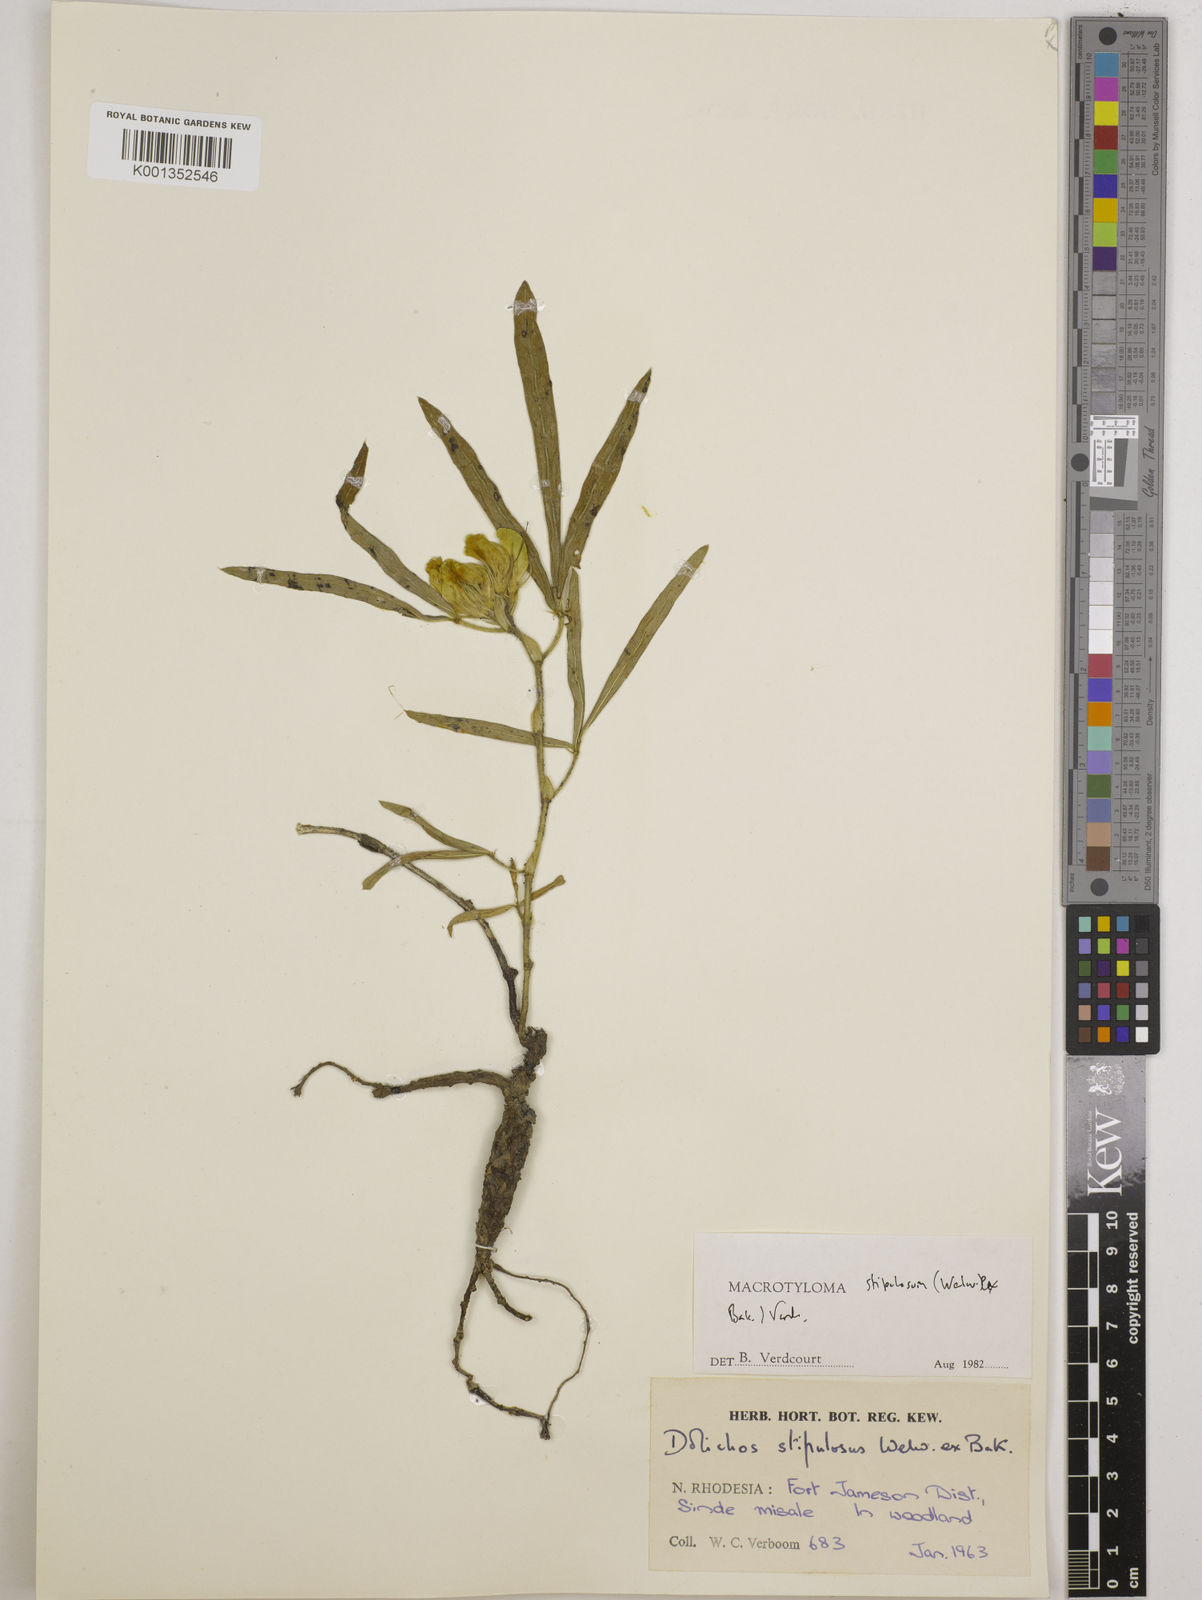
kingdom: Plantae
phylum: Tracheophyta
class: Magnoliopsida
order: Fabales
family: Fabaceae
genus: Macrotyloma
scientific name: Macrotyloma stipulosum
